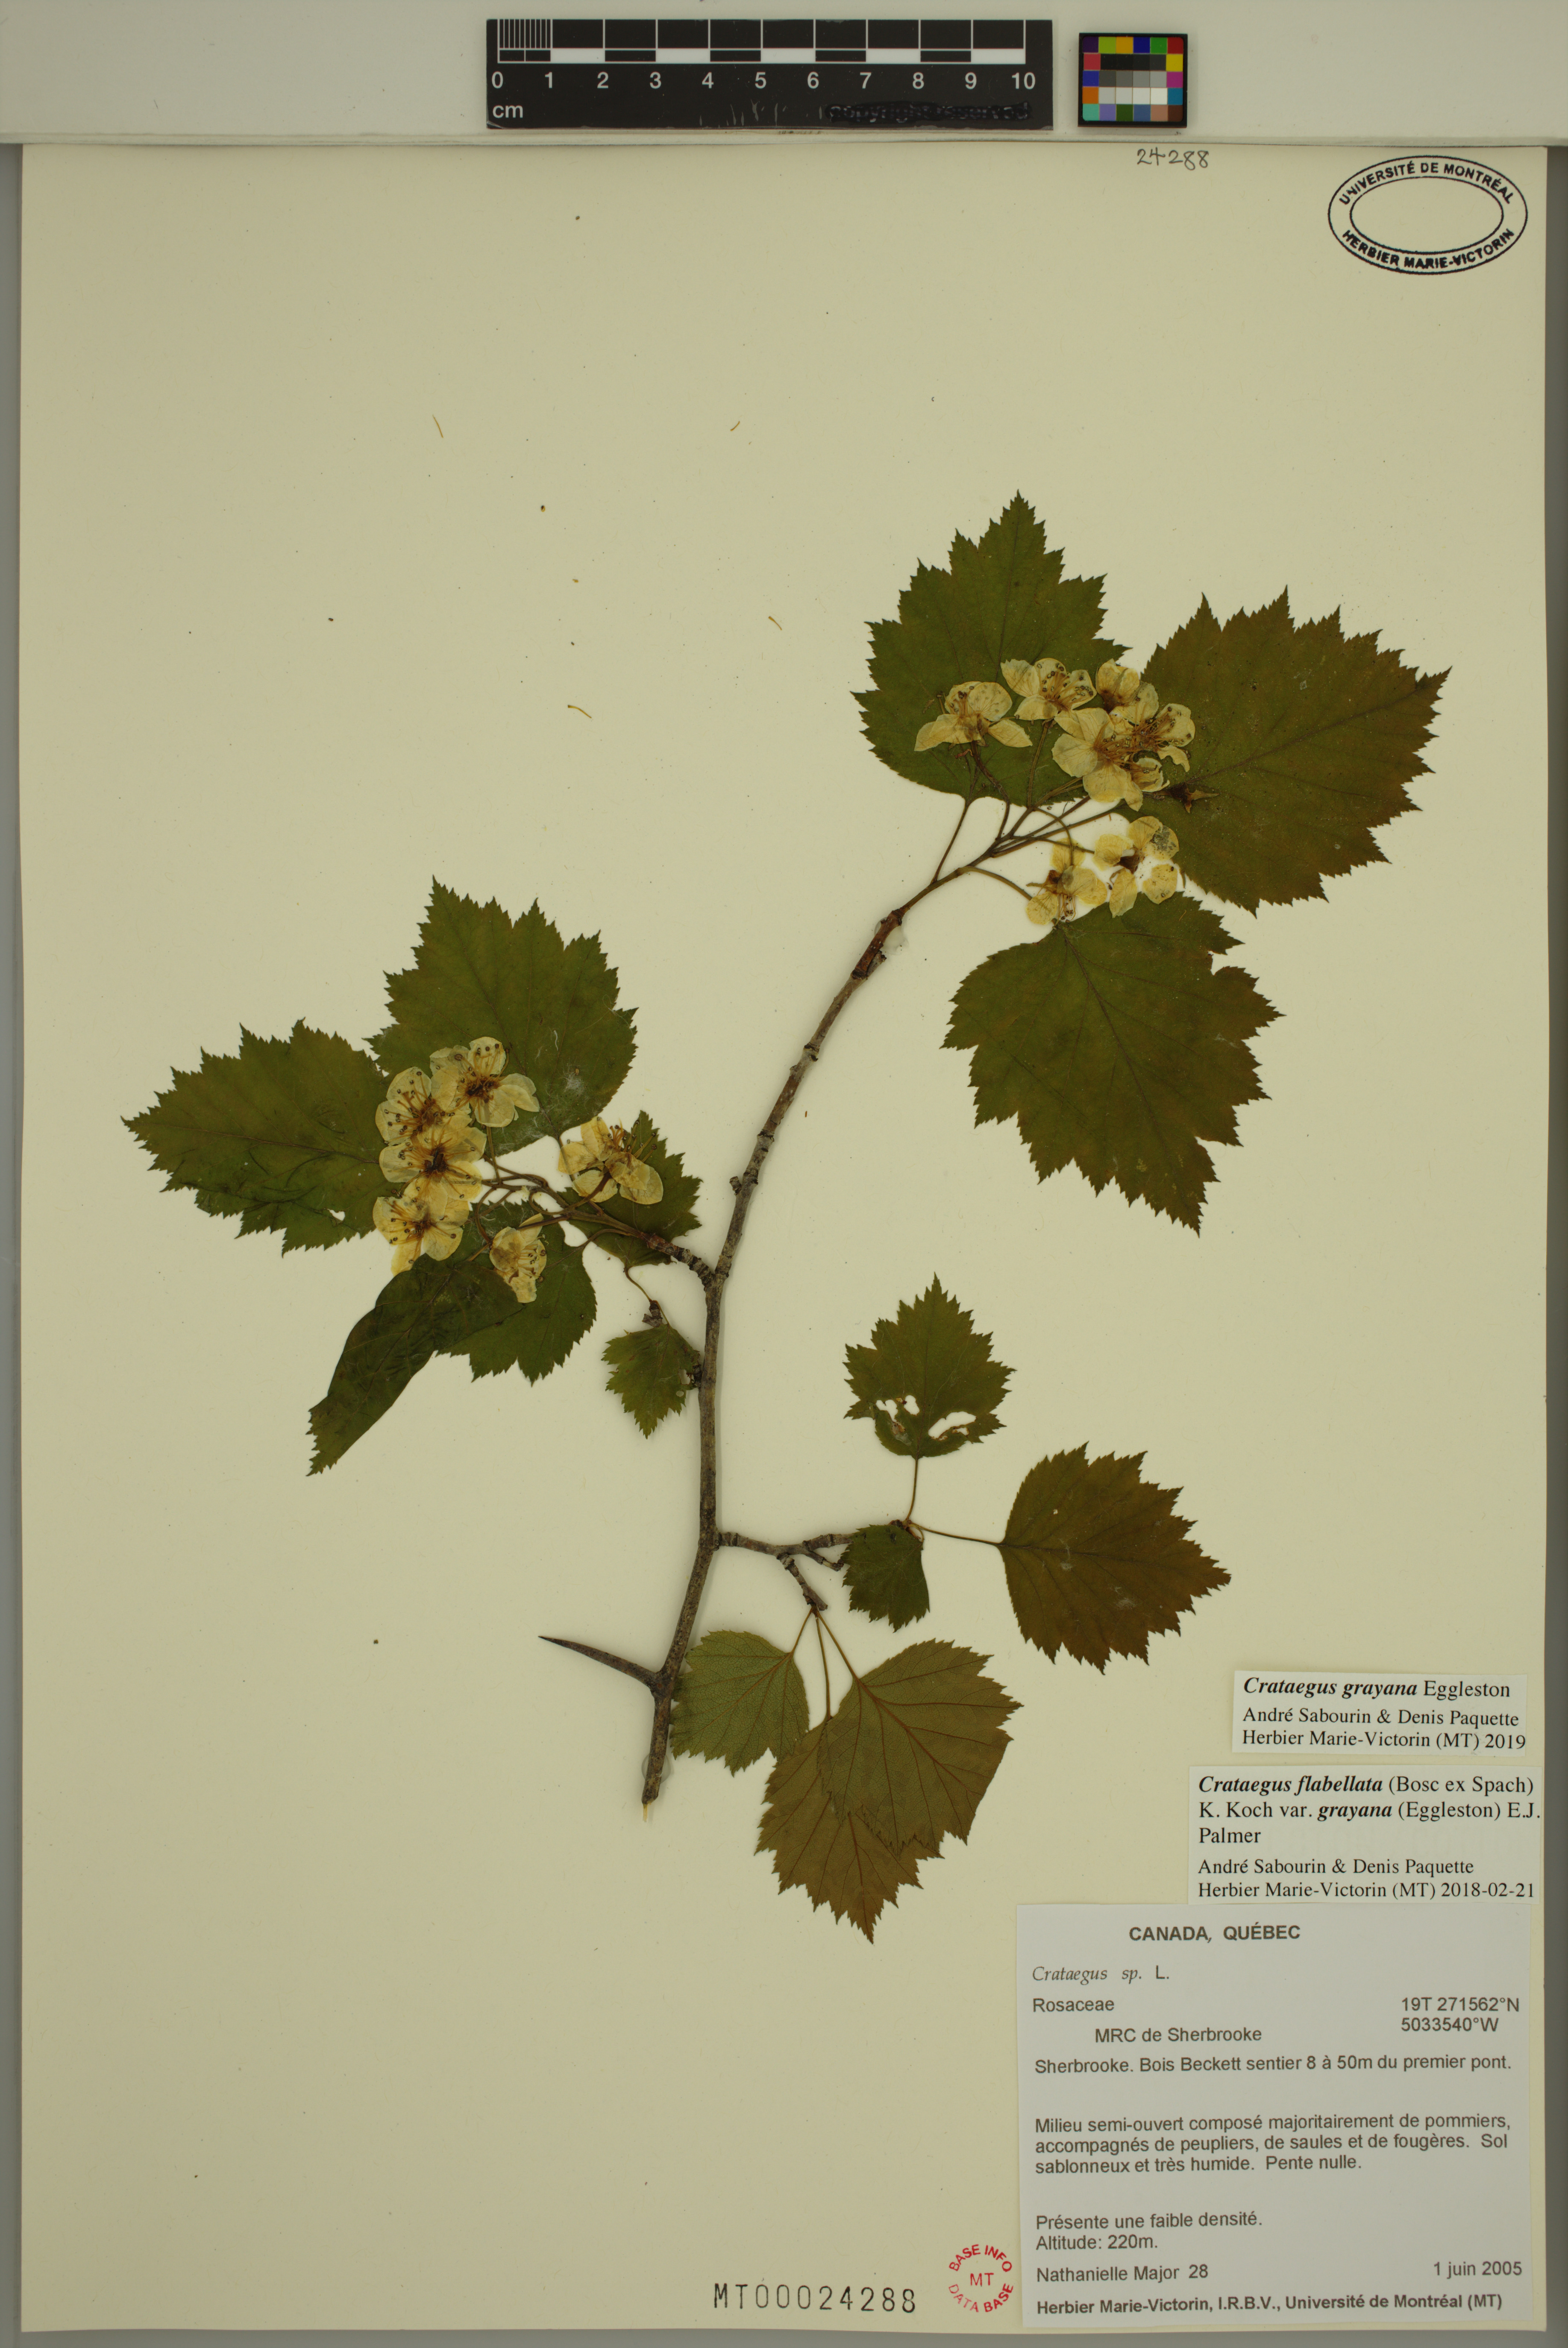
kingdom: Plantae
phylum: Tracheophyta
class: Magnoliopsida
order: Rosales
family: Rosaceae
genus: Crataegus
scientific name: Crataegus schuettei
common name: Schuette's hawthorn
